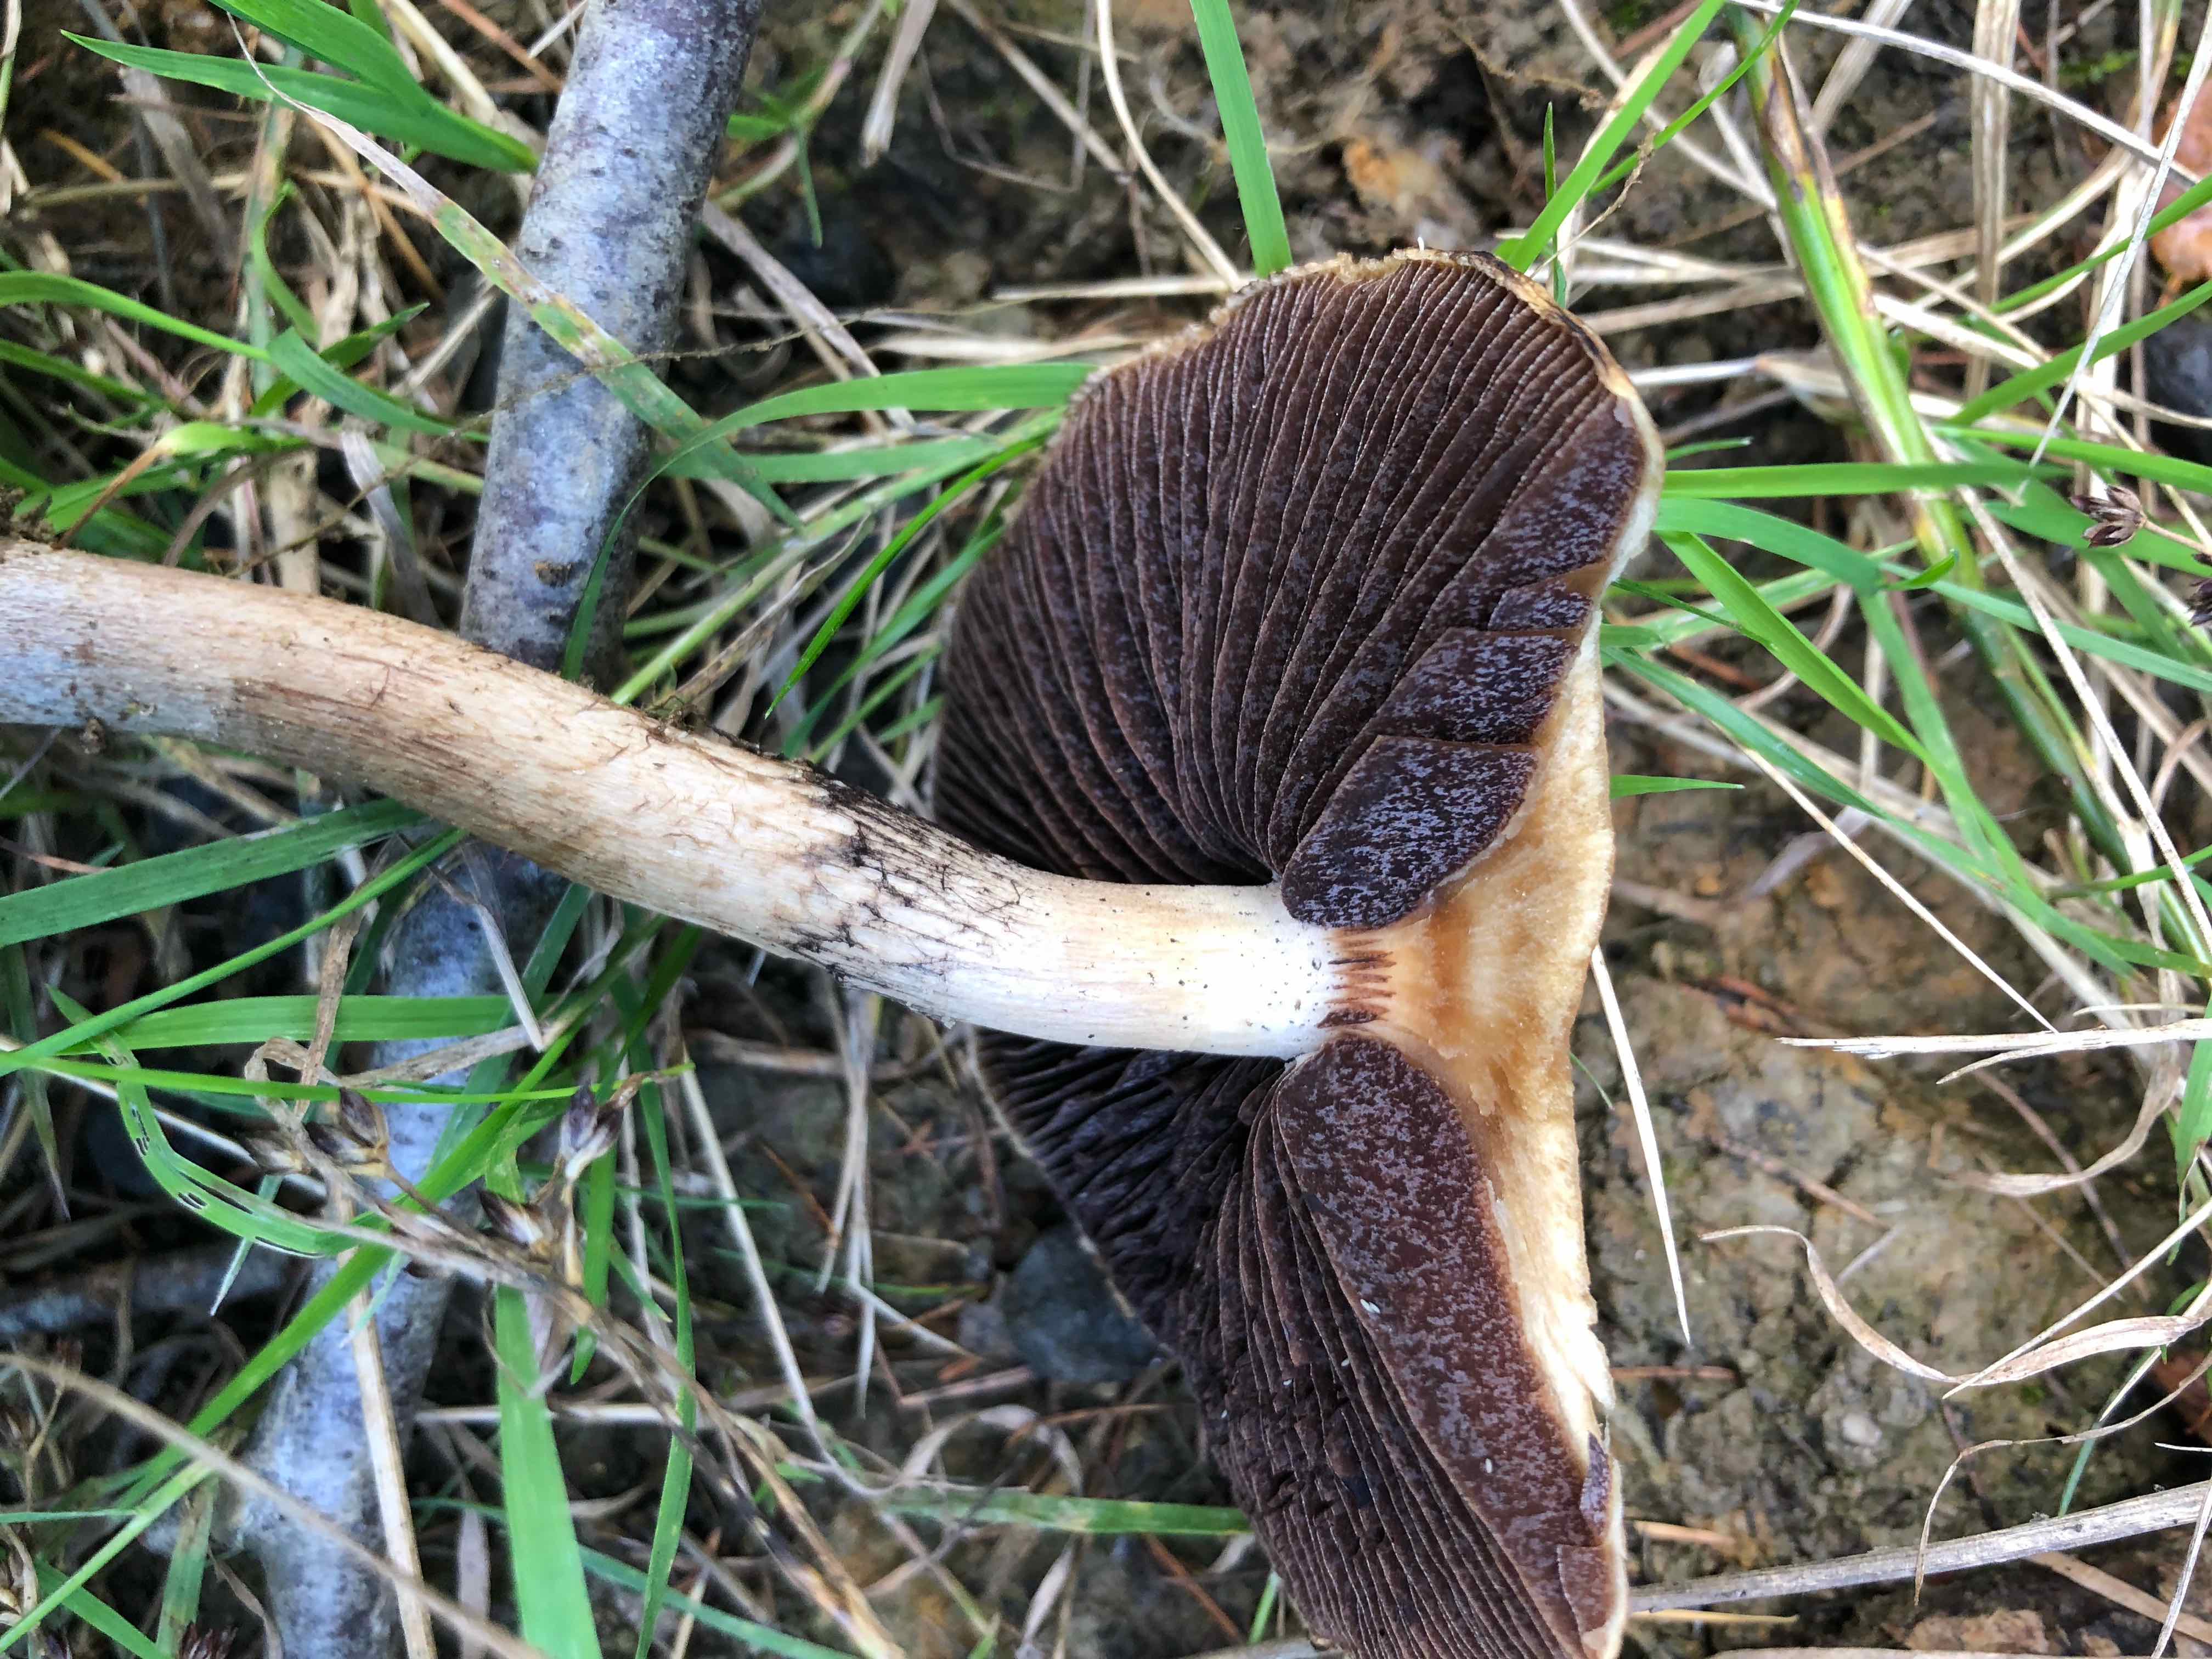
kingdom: Fungi
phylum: Basidiomycota
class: Agaricomycetes
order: Agaricales
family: Psathyrellaceae
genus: Lacrymaria
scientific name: Lacrymaria lacrymabunda
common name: grædende mørkhat
